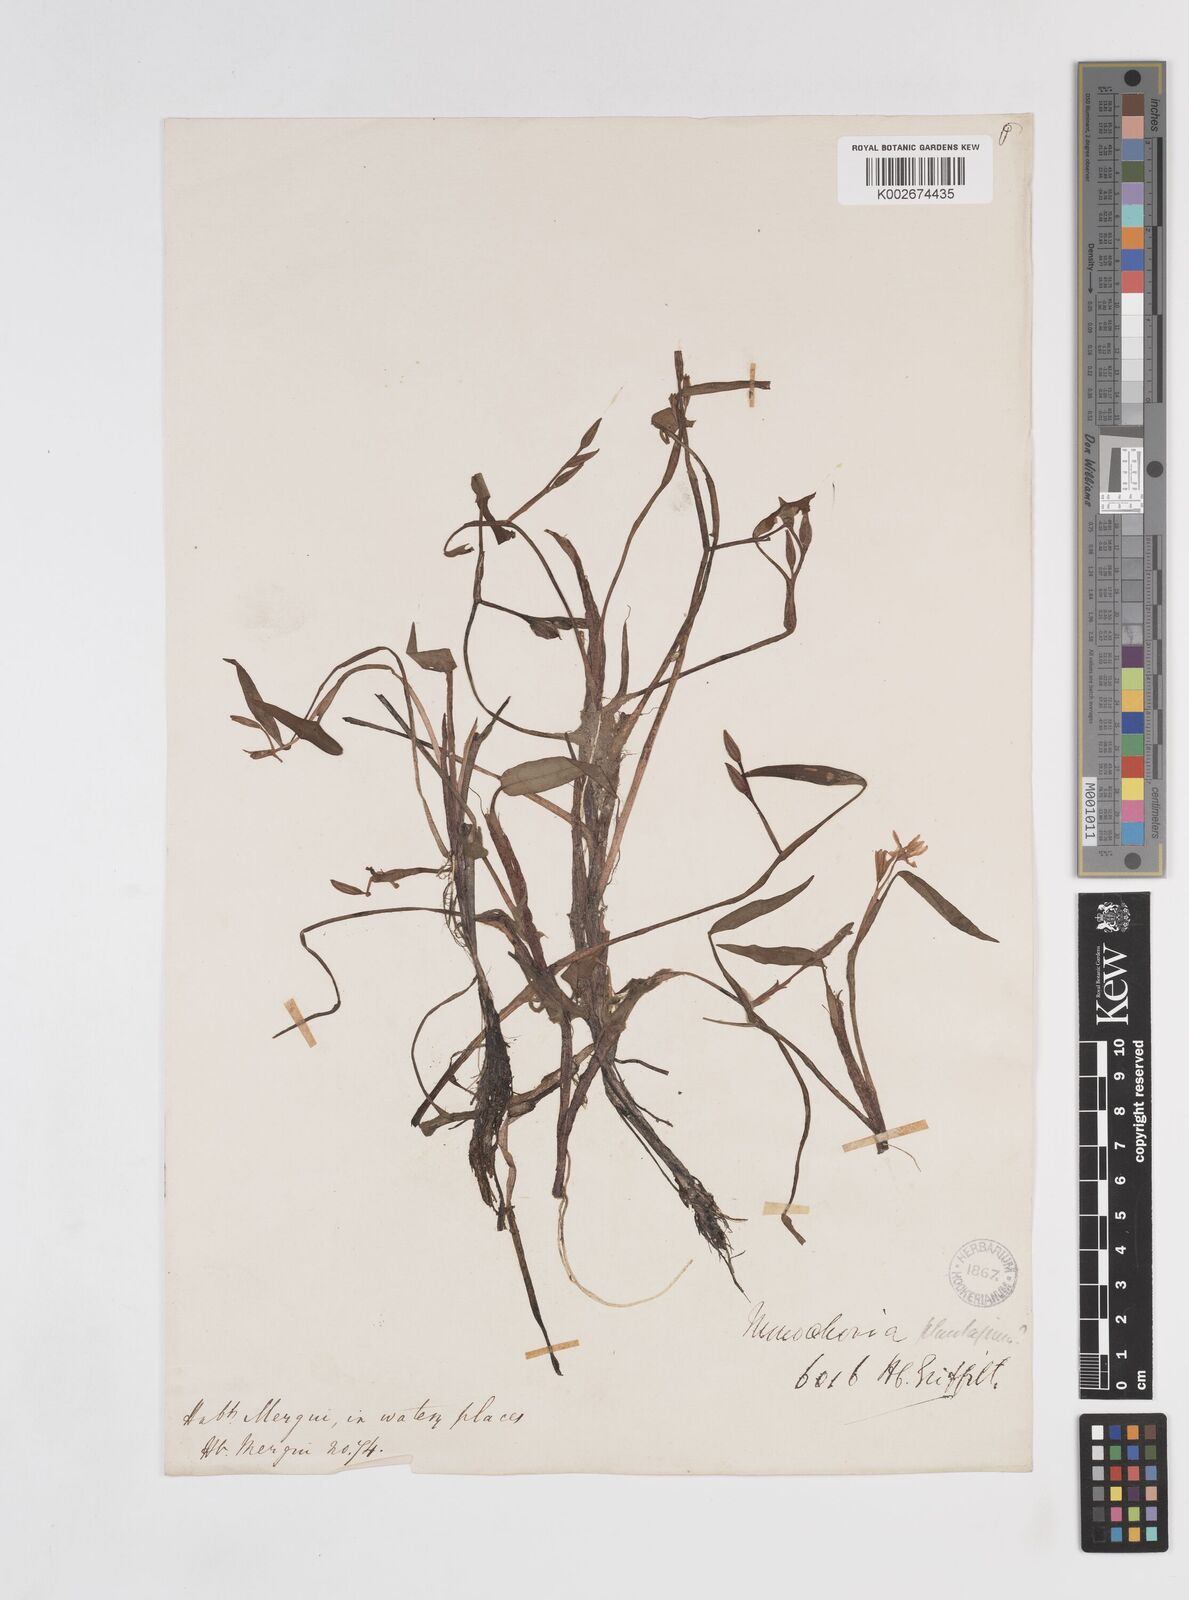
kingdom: Plantae
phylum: Tracheophyta
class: Liliopsida
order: Commelinales
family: Pontederiaceae
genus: Pontederia
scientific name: Pontederia vaginalis
